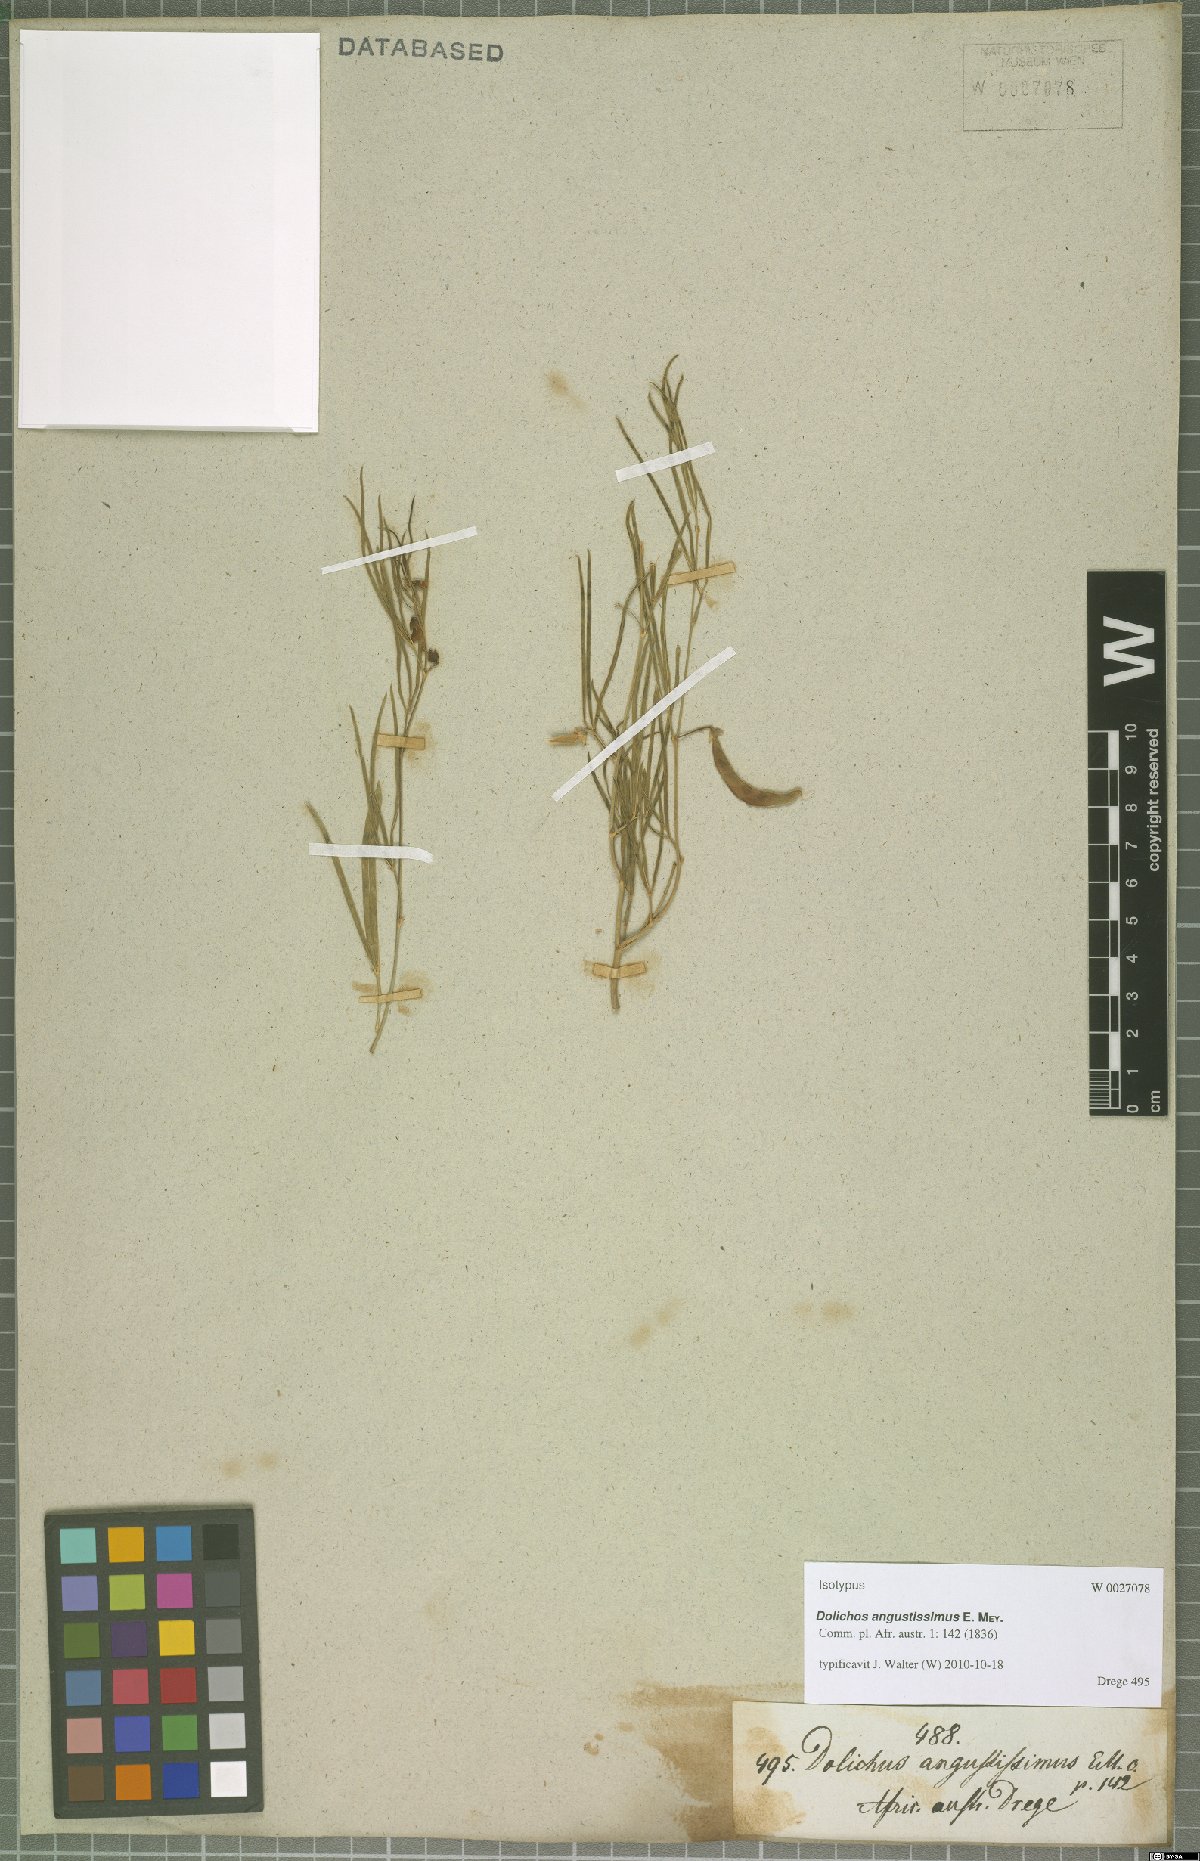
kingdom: Plantae
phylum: Tracheophyta
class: Magnoliopsida
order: Fabales
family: Fabaceae
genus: Dolichos
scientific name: Dolichos angustissimus
